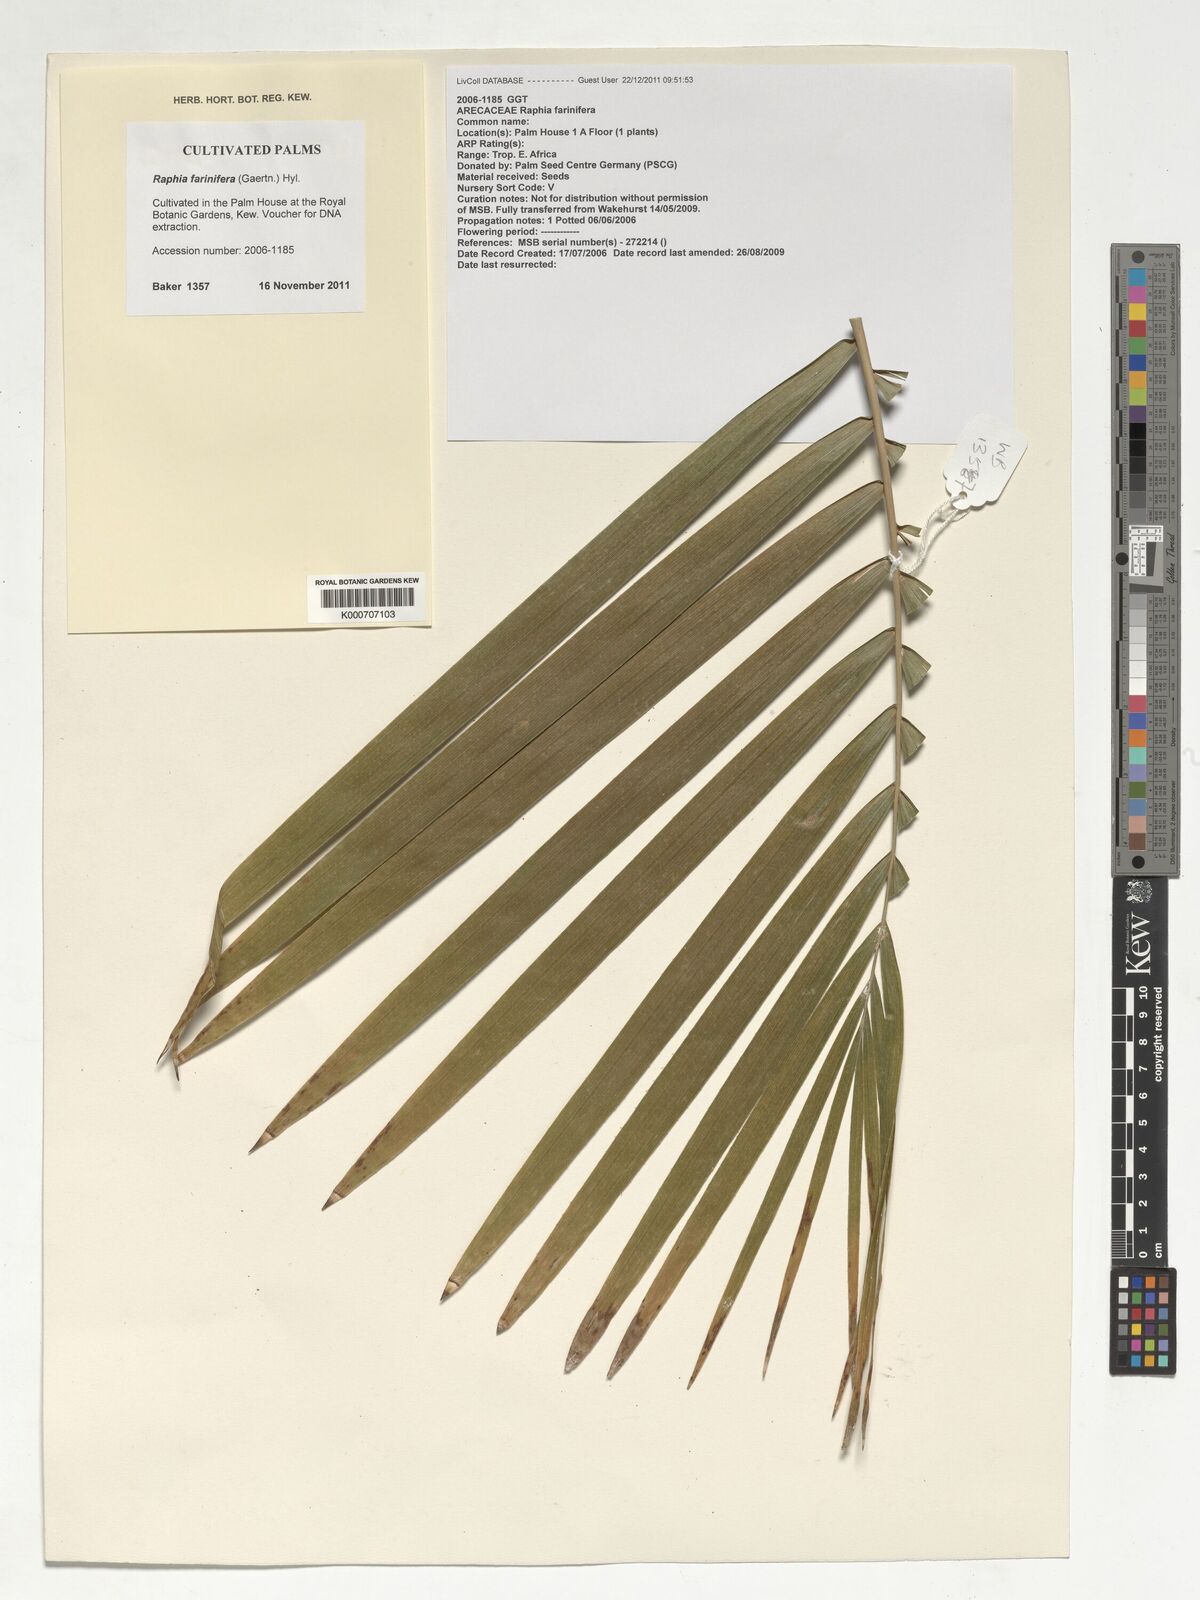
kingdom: Plantae
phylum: Tracheophyta
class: Liliopsida
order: Arecales
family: Arecaceae
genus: Raphia
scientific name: Raphia farinifera
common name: Raphia palm
